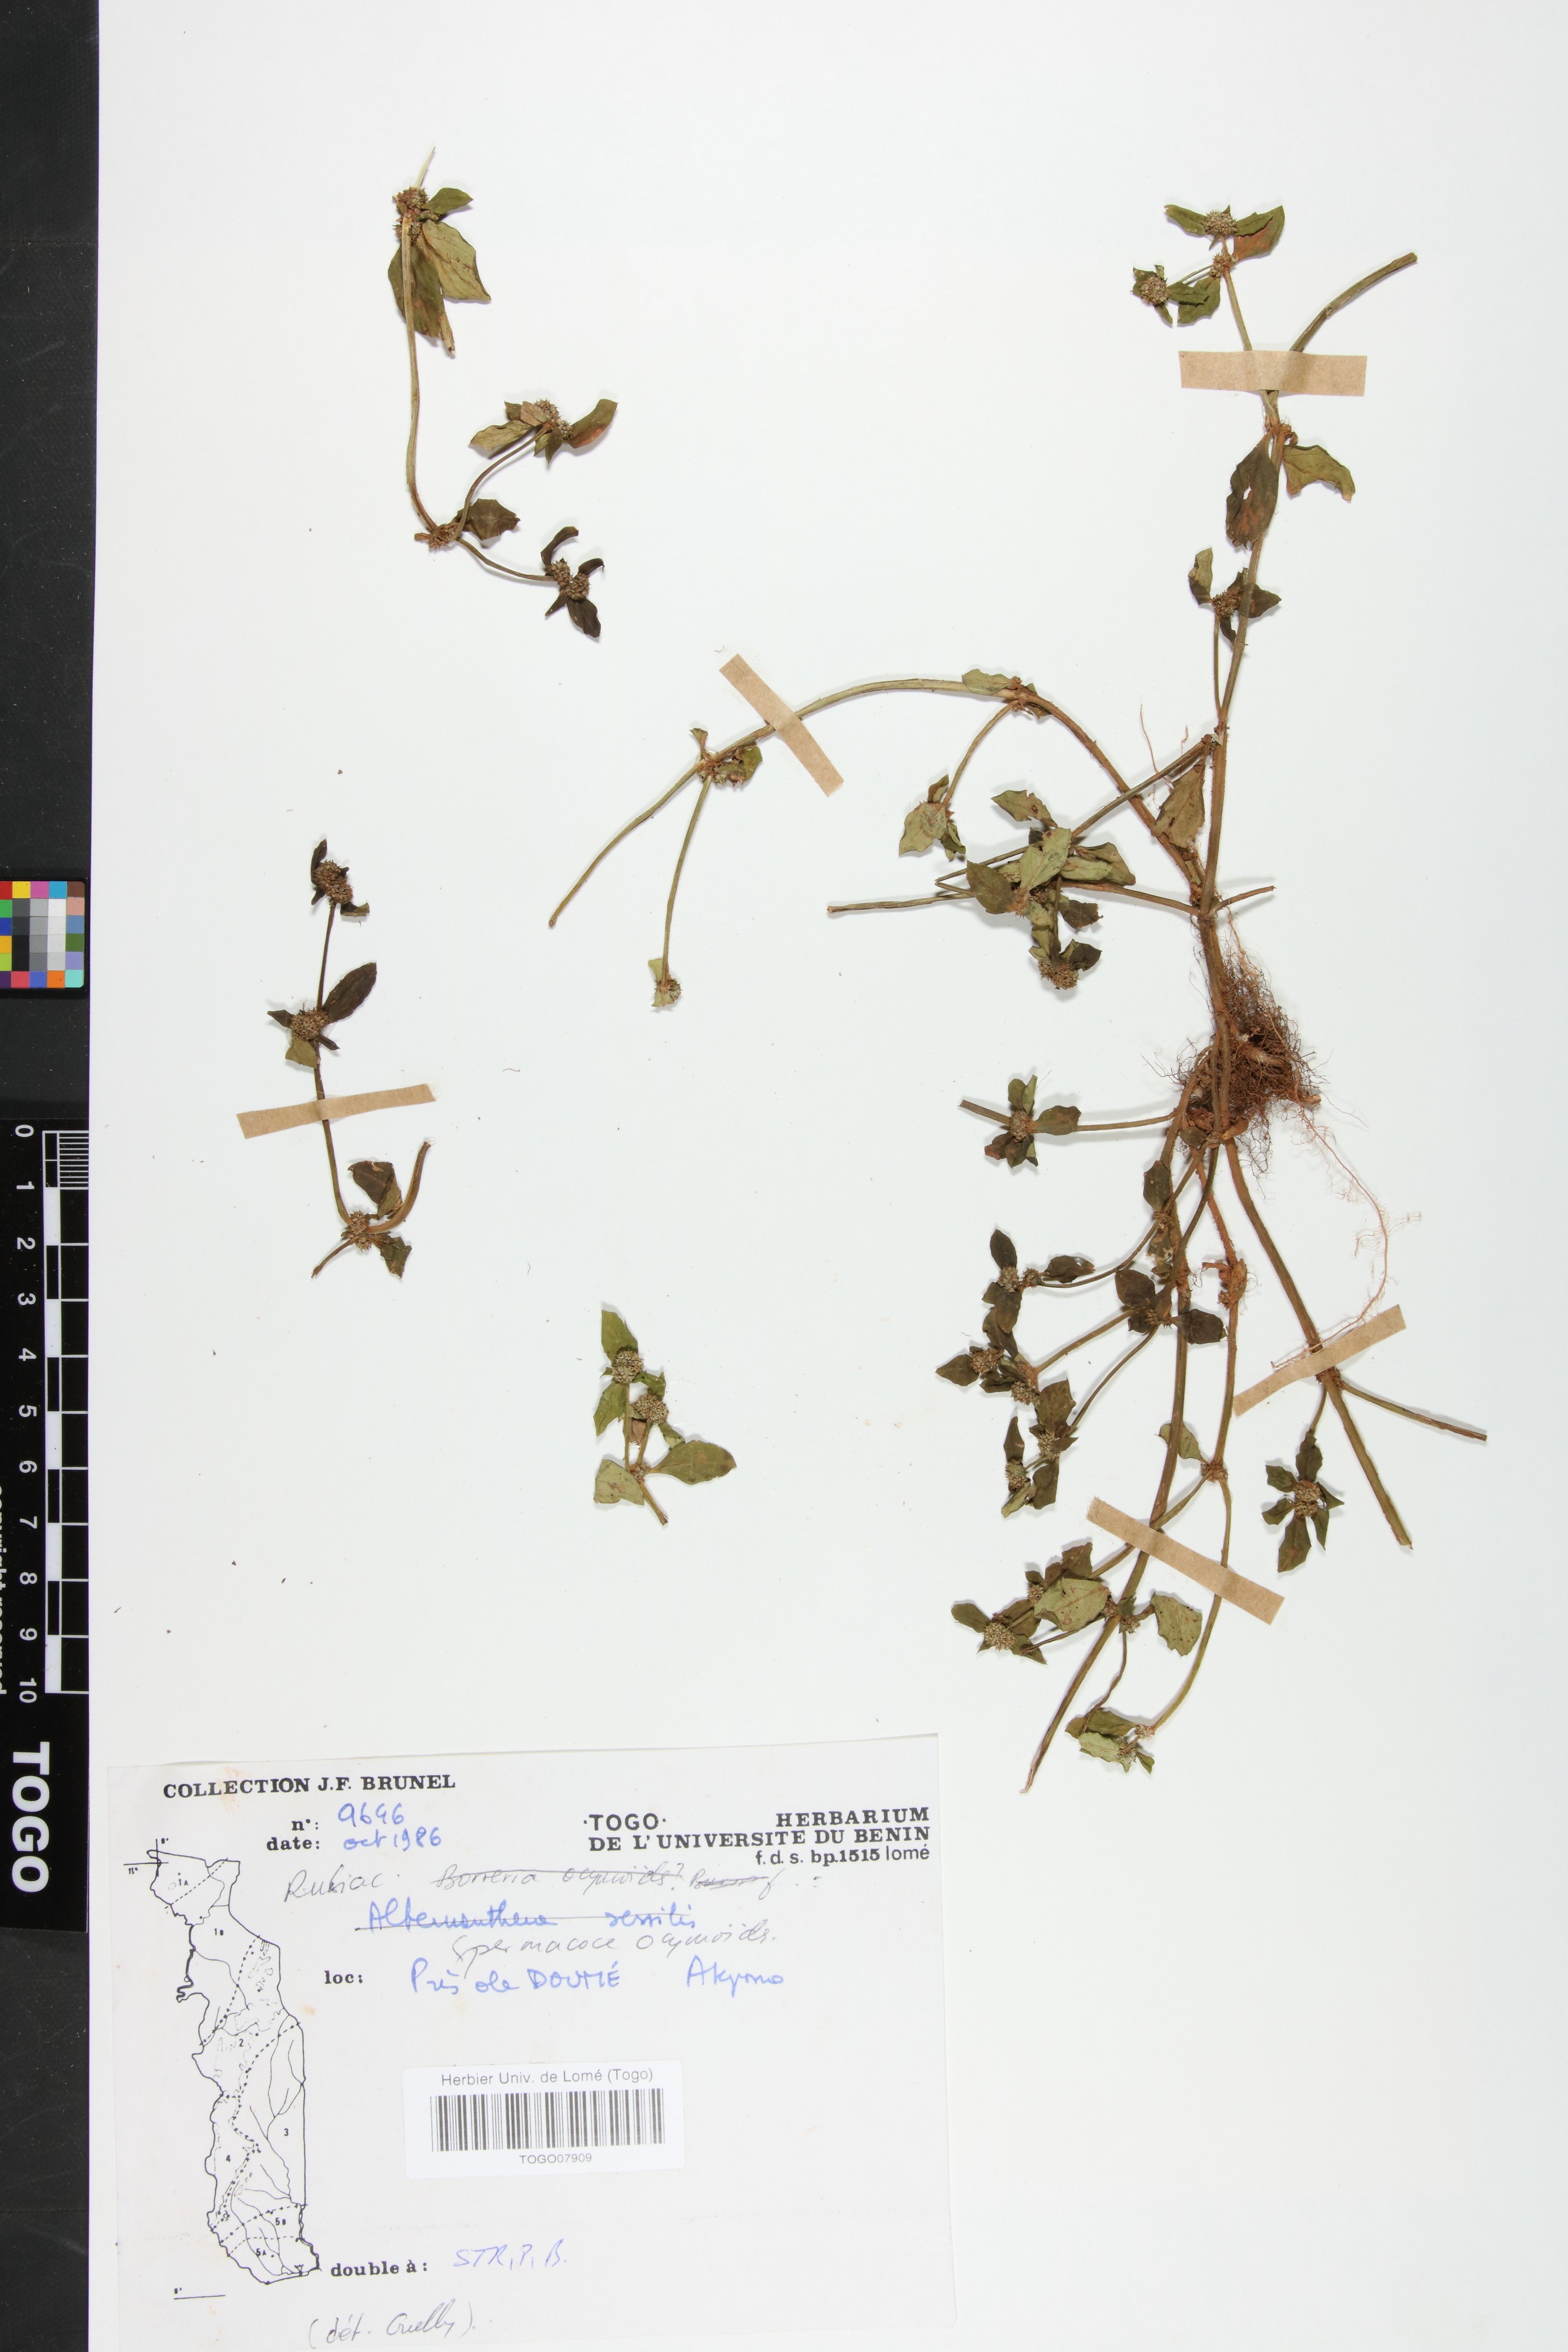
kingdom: Plantae
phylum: Tracheophyta
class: Magnoliopsida
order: Gentianales
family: Rubiaceae
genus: Spermacoce
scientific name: Spermacoce ocymoides
